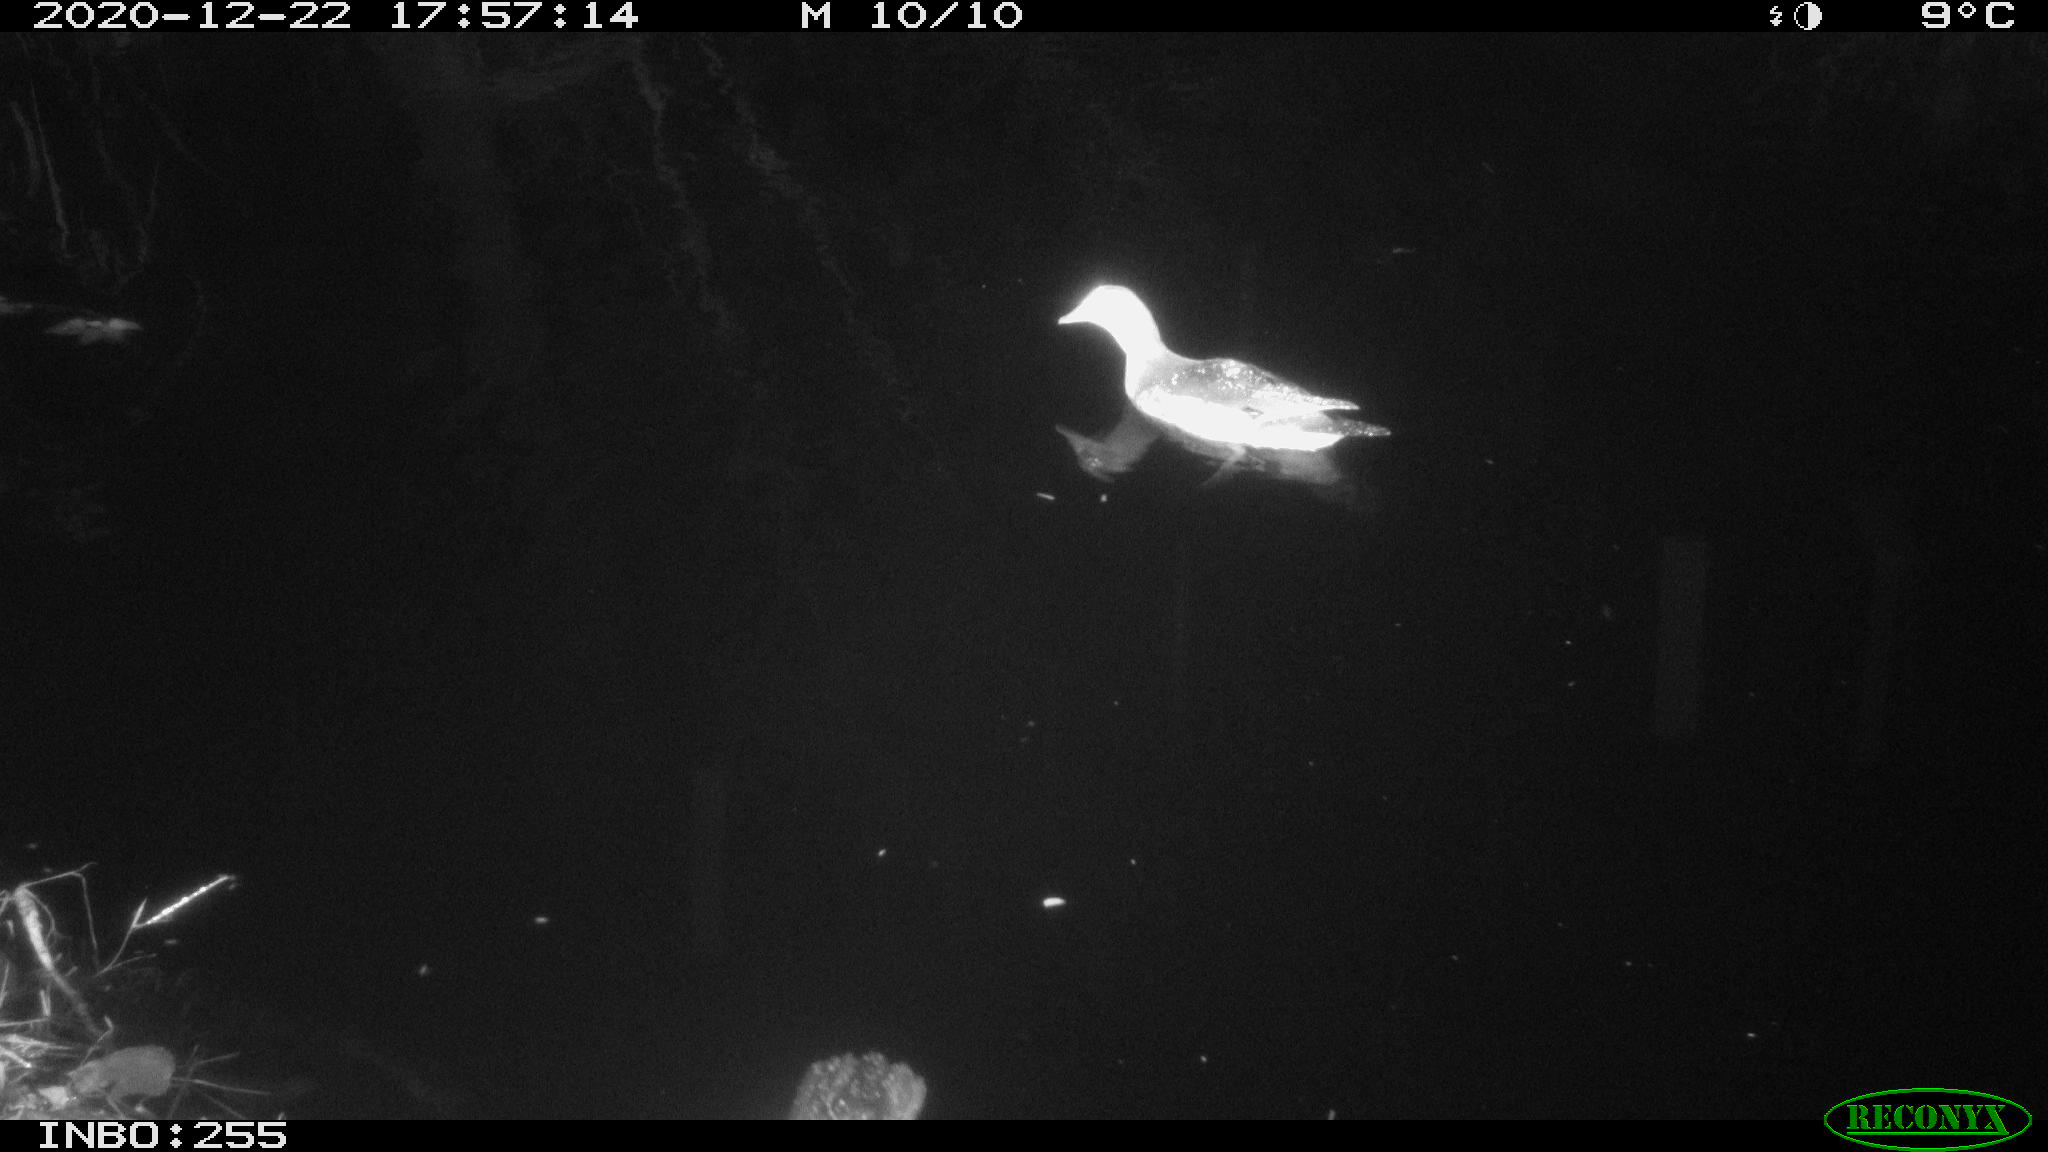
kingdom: Animalia
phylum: Chordata
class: Aves
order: Anseriformes
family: Anatidae
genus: Aix
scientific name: Aix galericulata
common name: Mandarin duck
